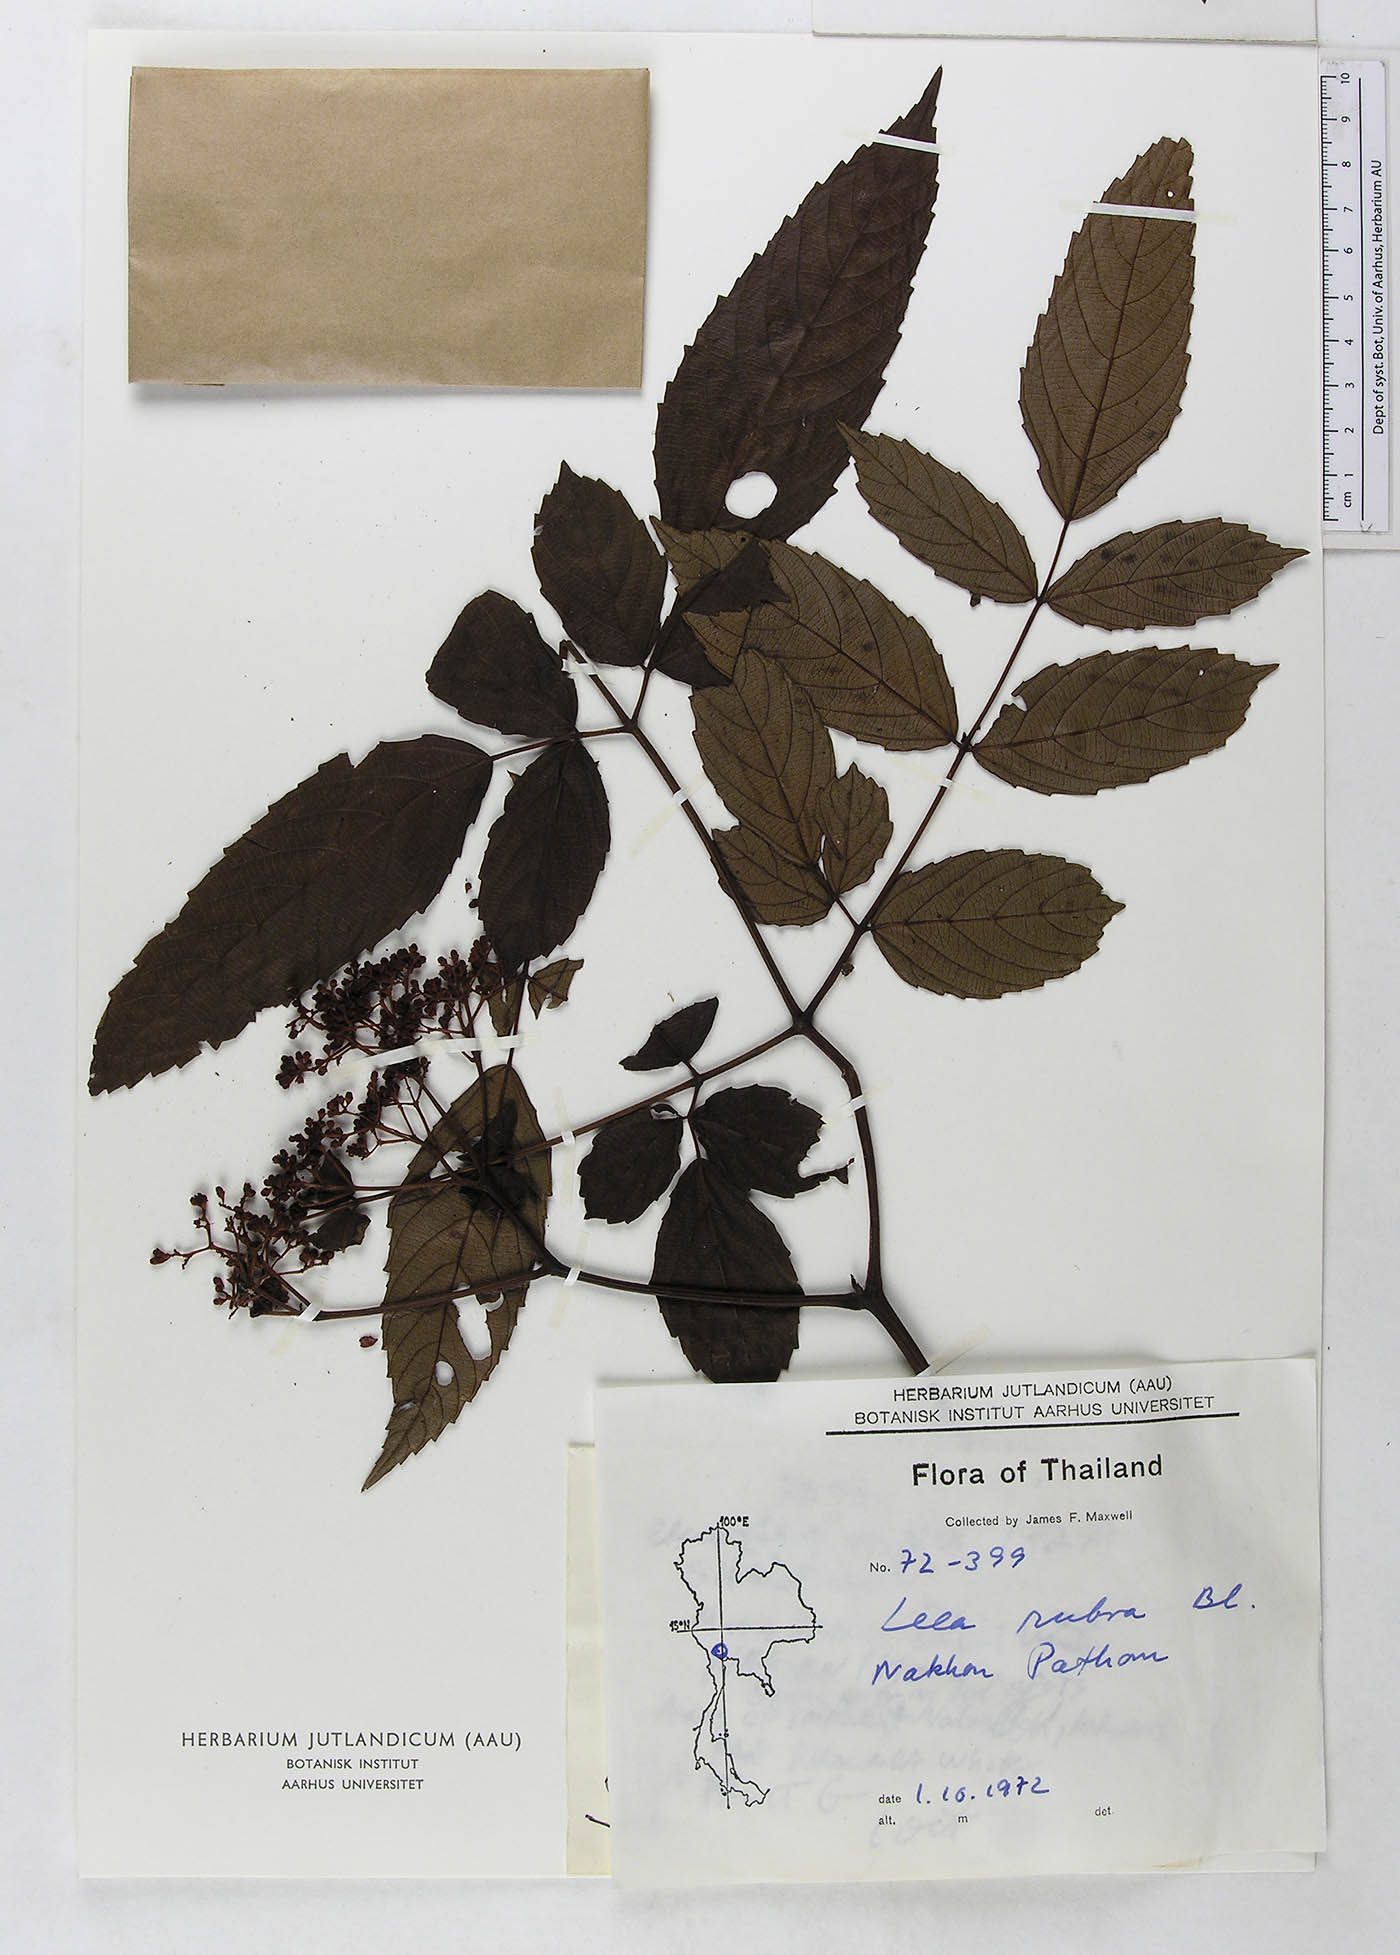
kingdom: Plantae
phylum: Tracheophyta
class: Magnoliopsida
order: Vitales
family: Vitaceae
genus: Leea
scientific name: Leea rubra
